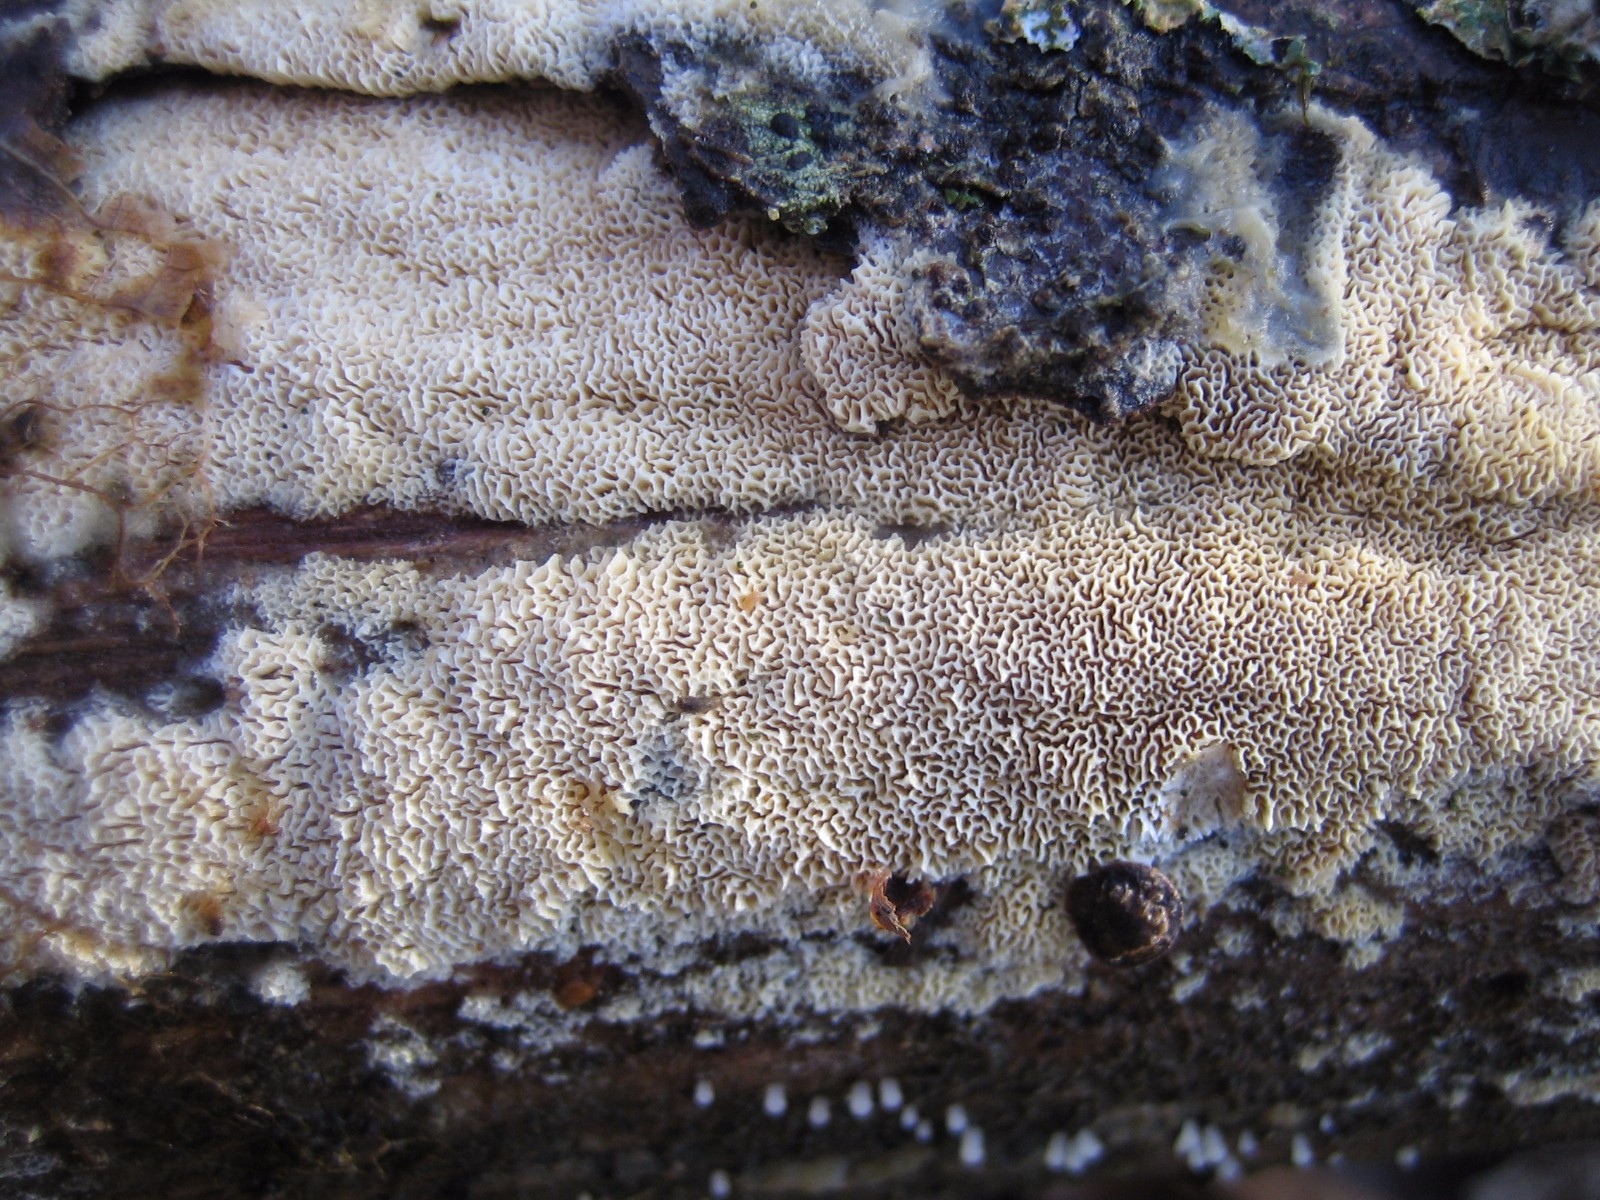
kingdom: Fungi
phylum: Basidiomycota
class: Agaricomycetes
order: Hymenochaetales
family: Schizoporaceae
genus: Xylodon
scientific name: Xylodon subtropicus
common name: labyrint-tandsvamp
